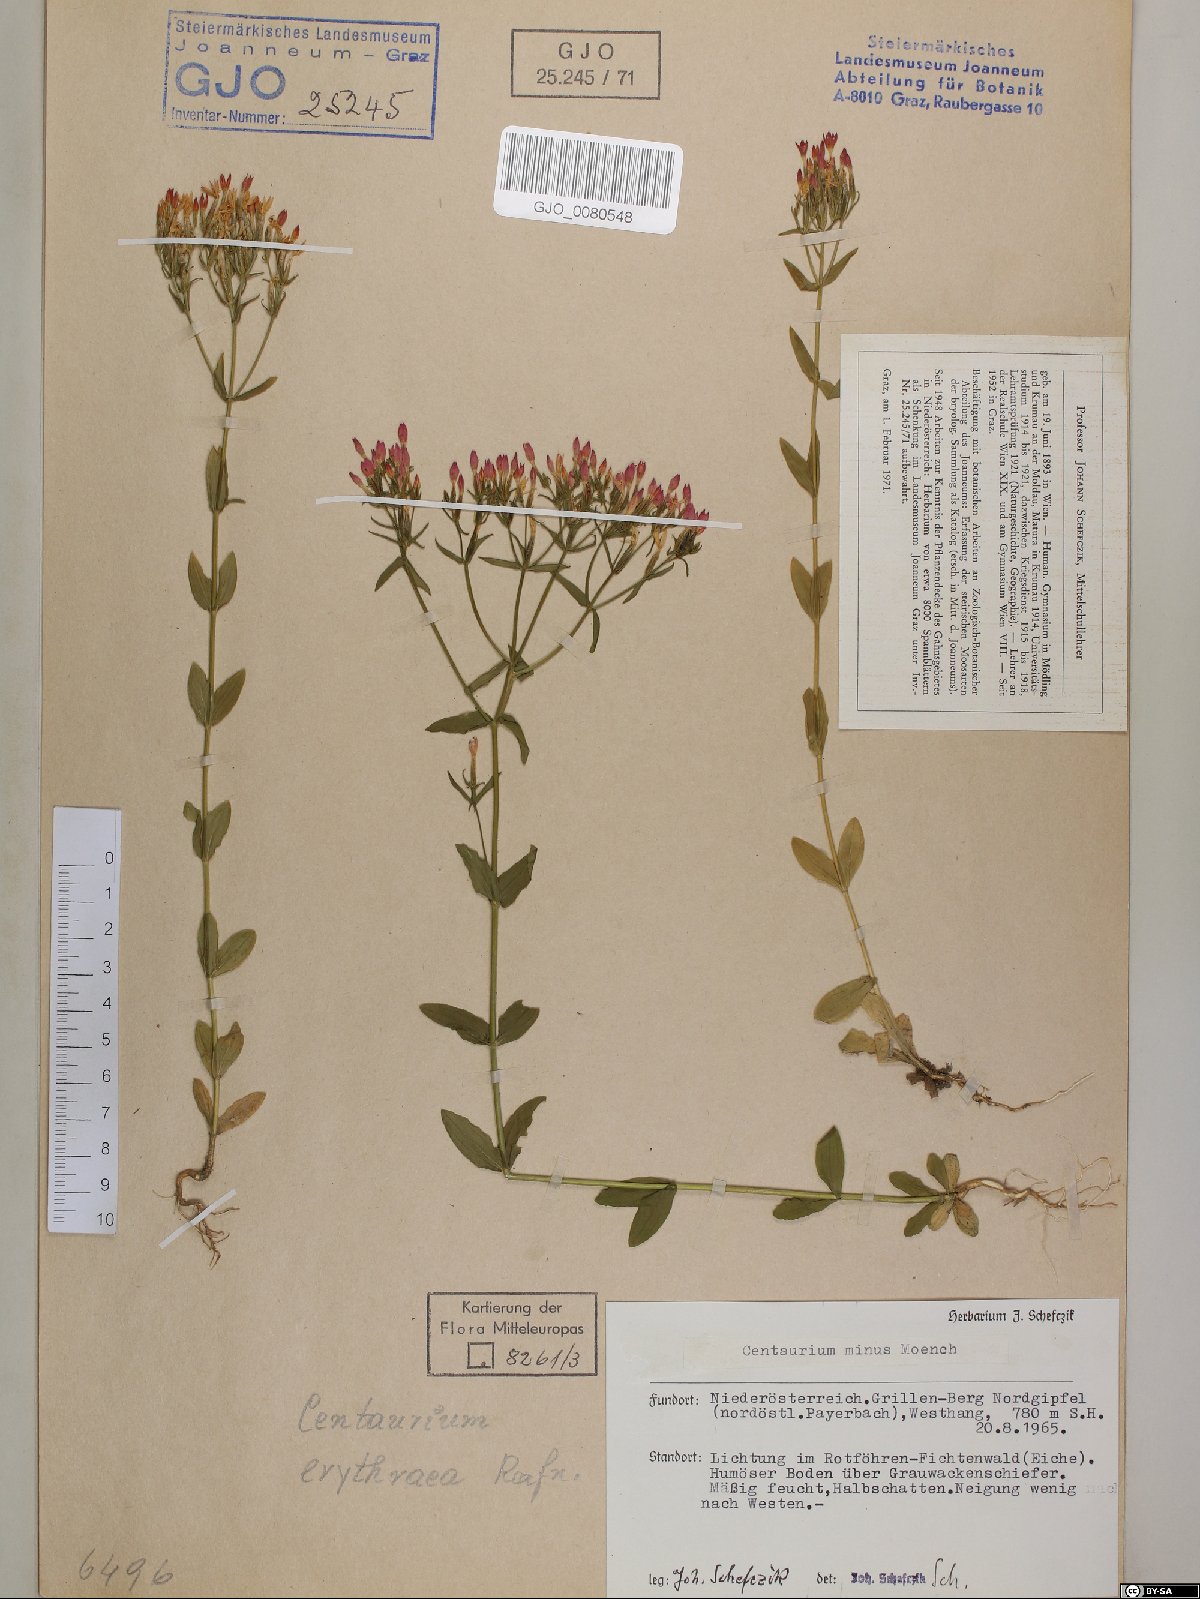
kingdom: Plantae
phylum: Tracheophyta
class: Magnoliopsida
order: Gentianales
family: Gentianaceae
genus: Centaurium
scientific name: Centaurium erythraea
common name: Common centaury
